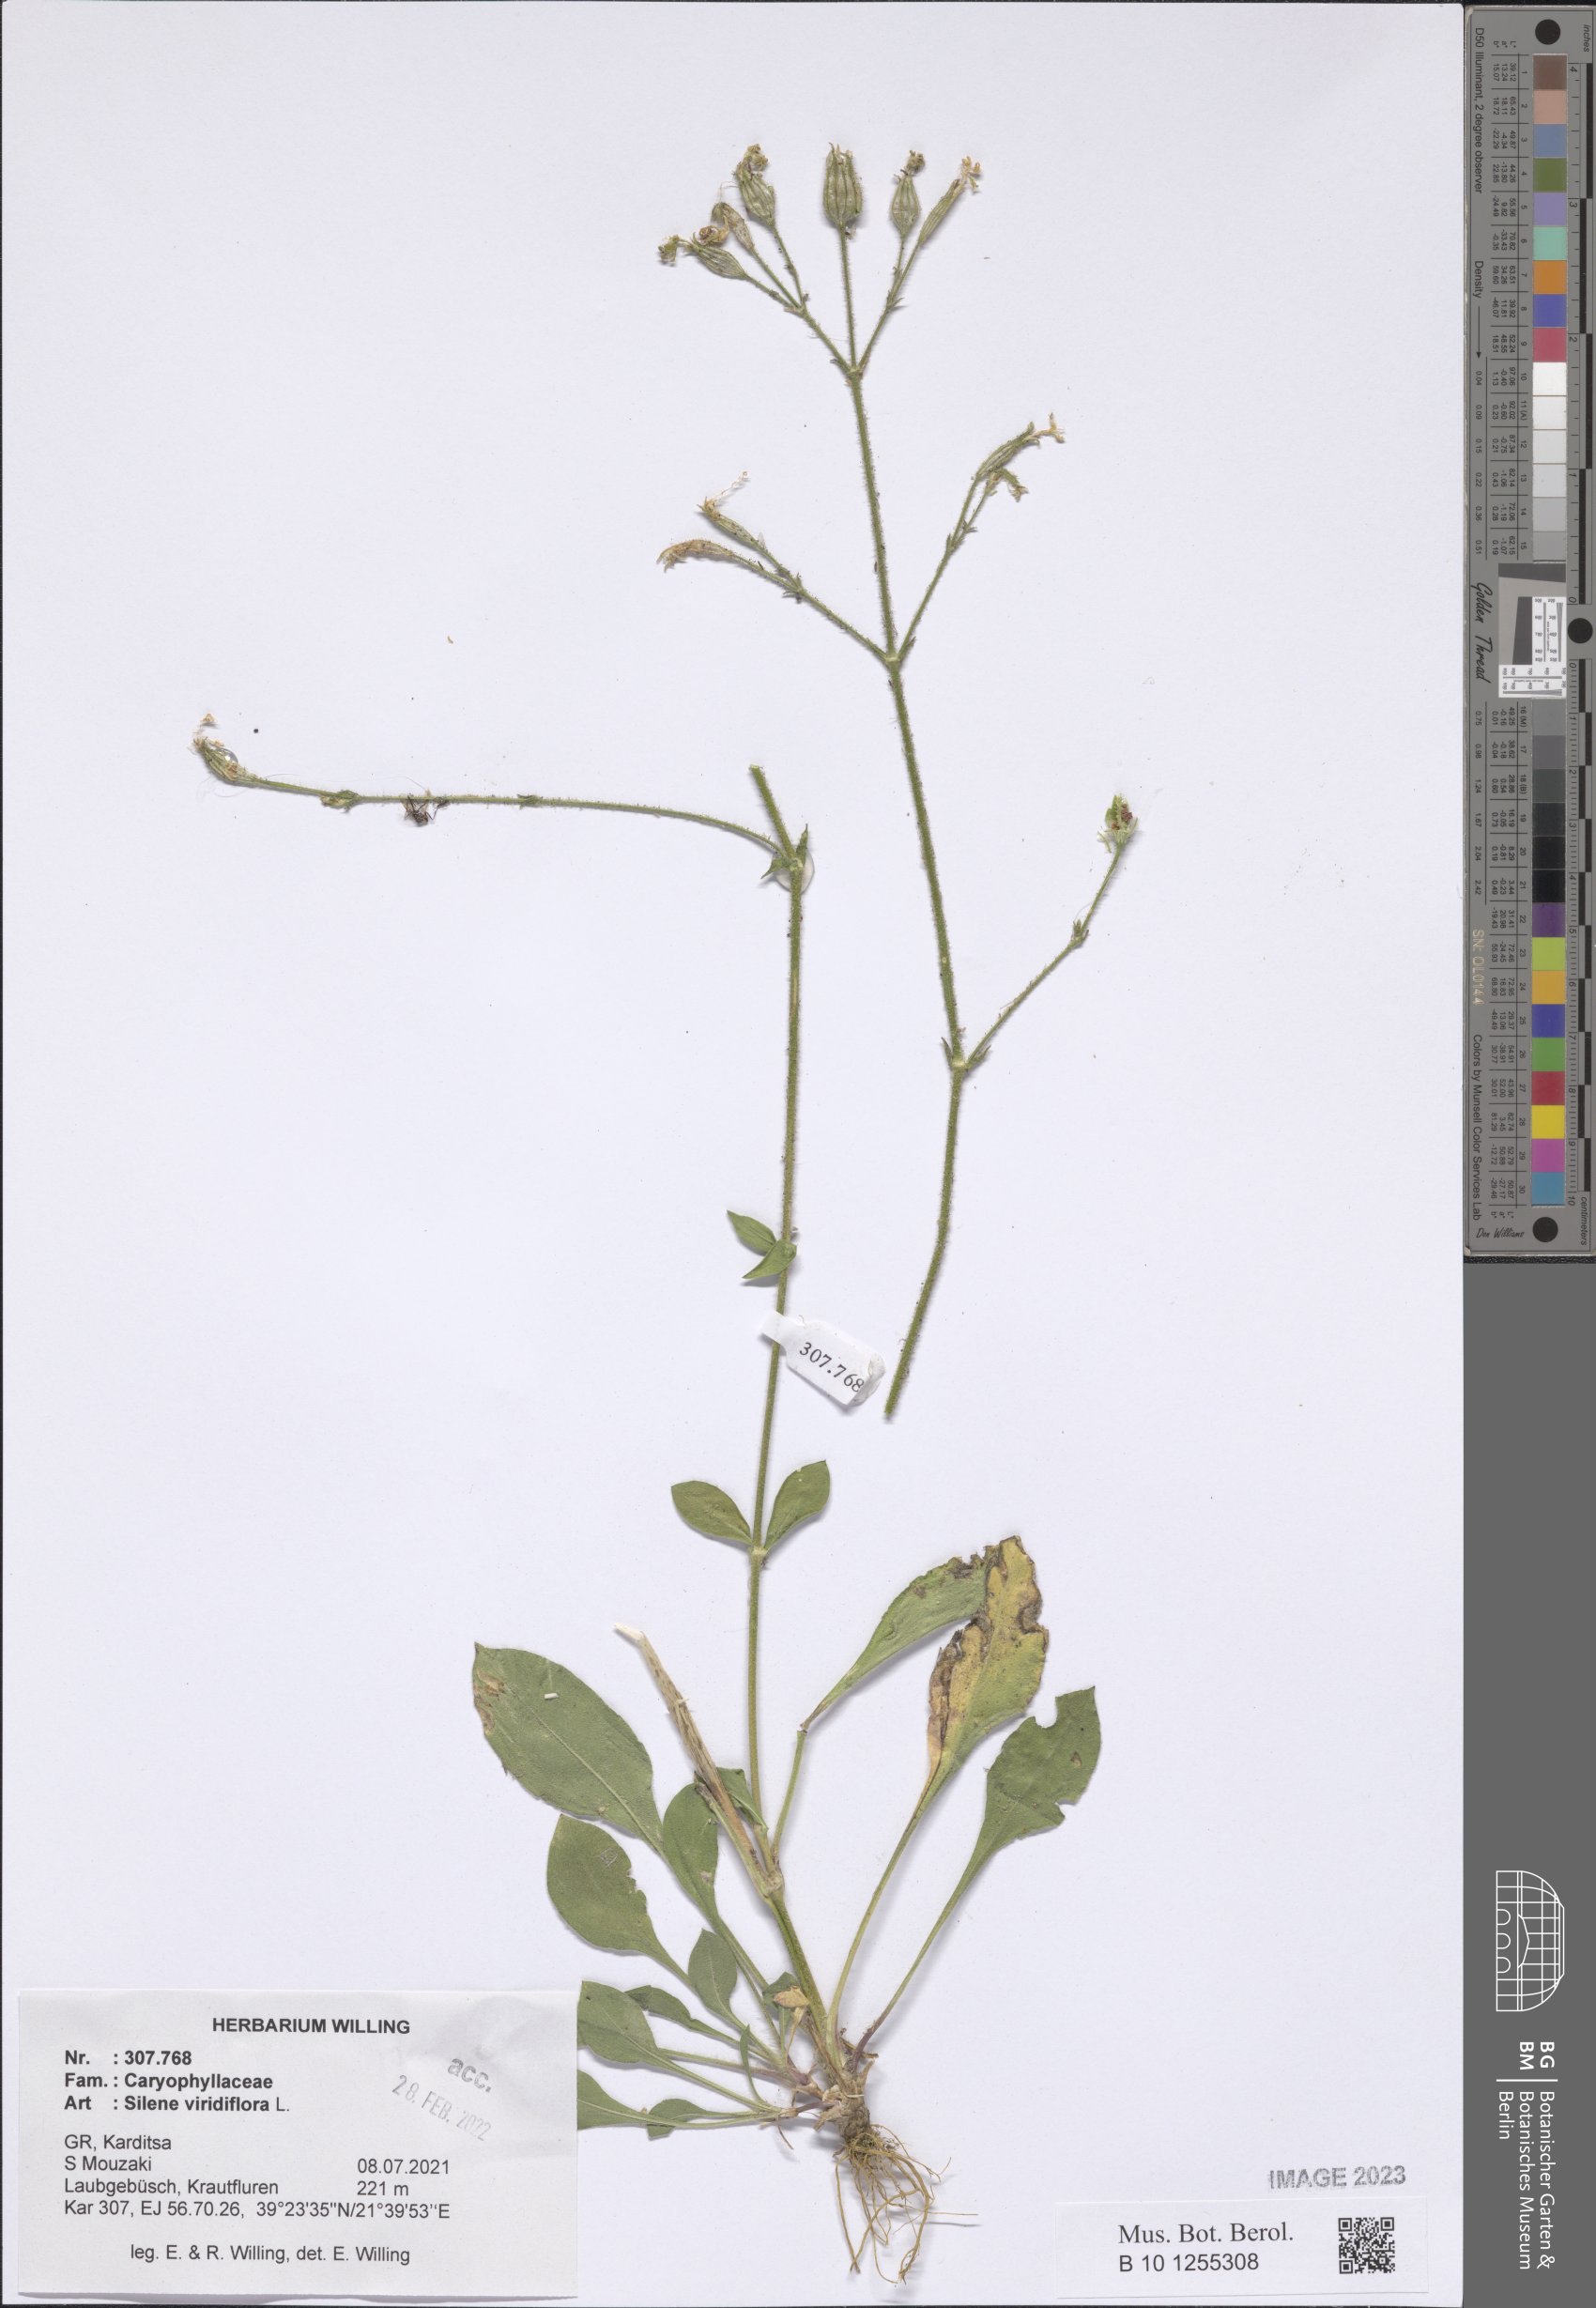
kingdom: Plantae
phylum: Tracheophyta
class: Magnoliopsida
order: Caryophyllales
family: Caryophyllaceae
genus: Silene
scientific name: Silene viridiflora
